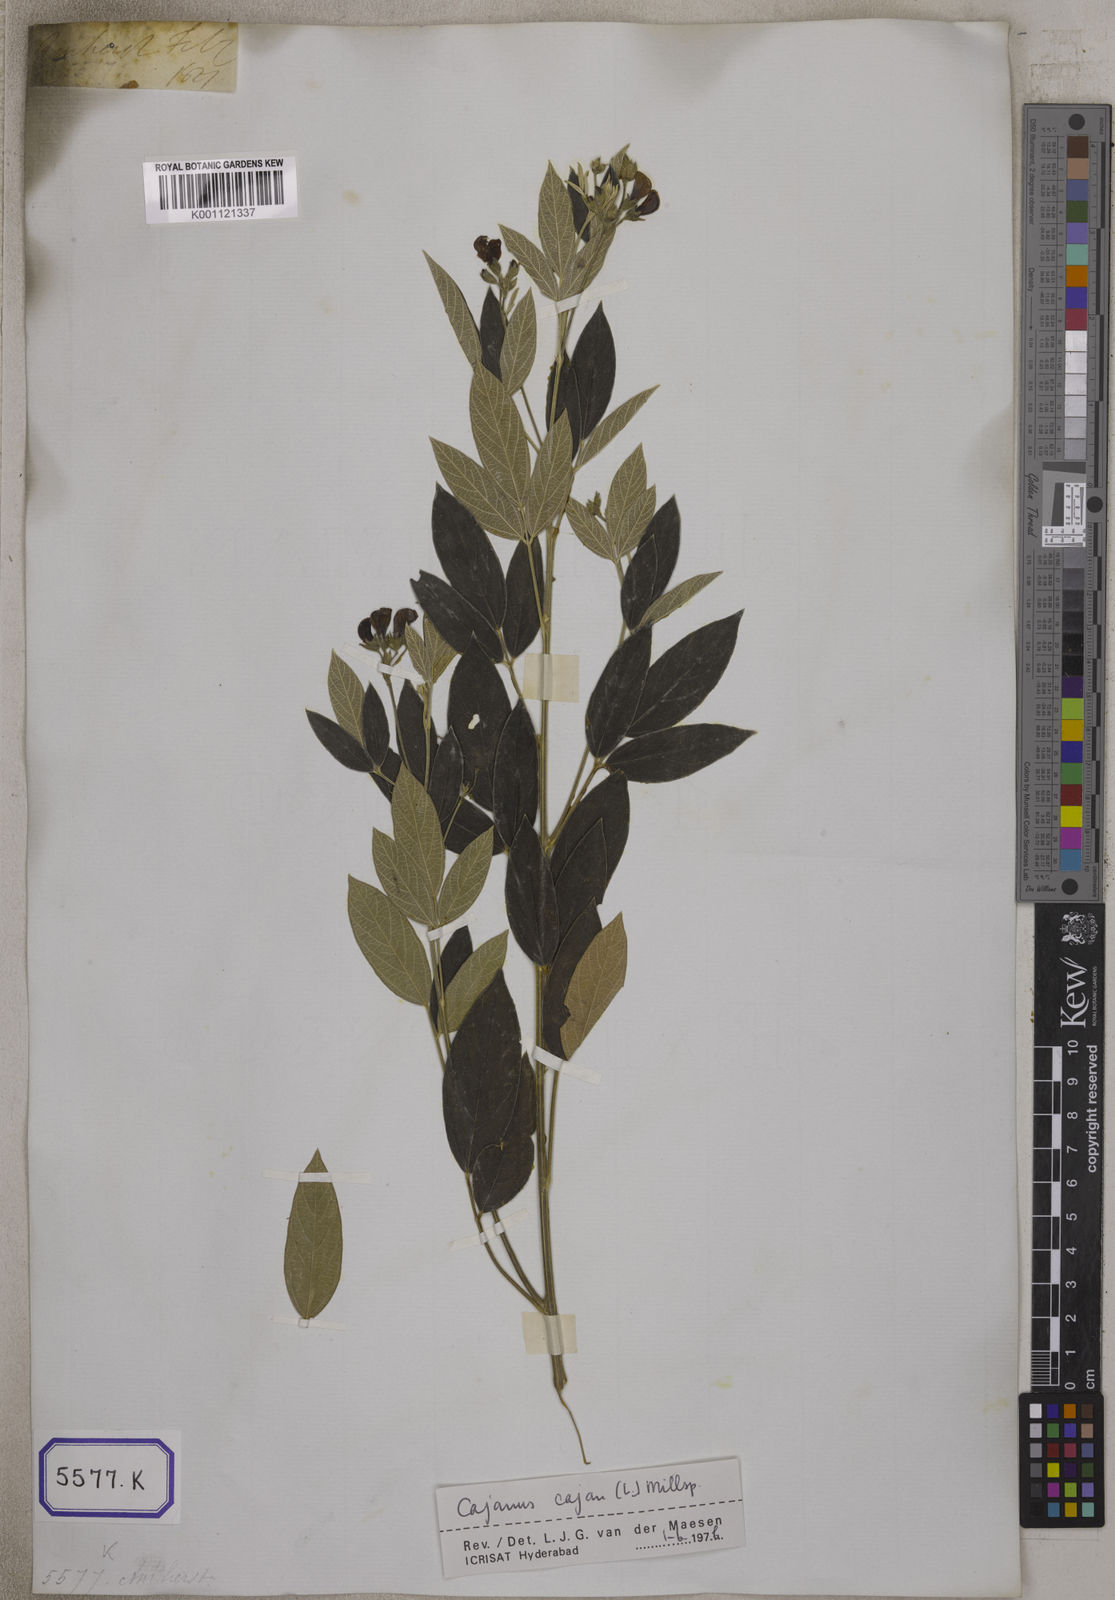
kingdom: Plantae
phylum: Tracheophyta
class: Magnoliopsida
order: Fabales
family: Fabaceae
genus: Cajanus
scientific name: Cajanus cajan
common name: Pigeonpea
